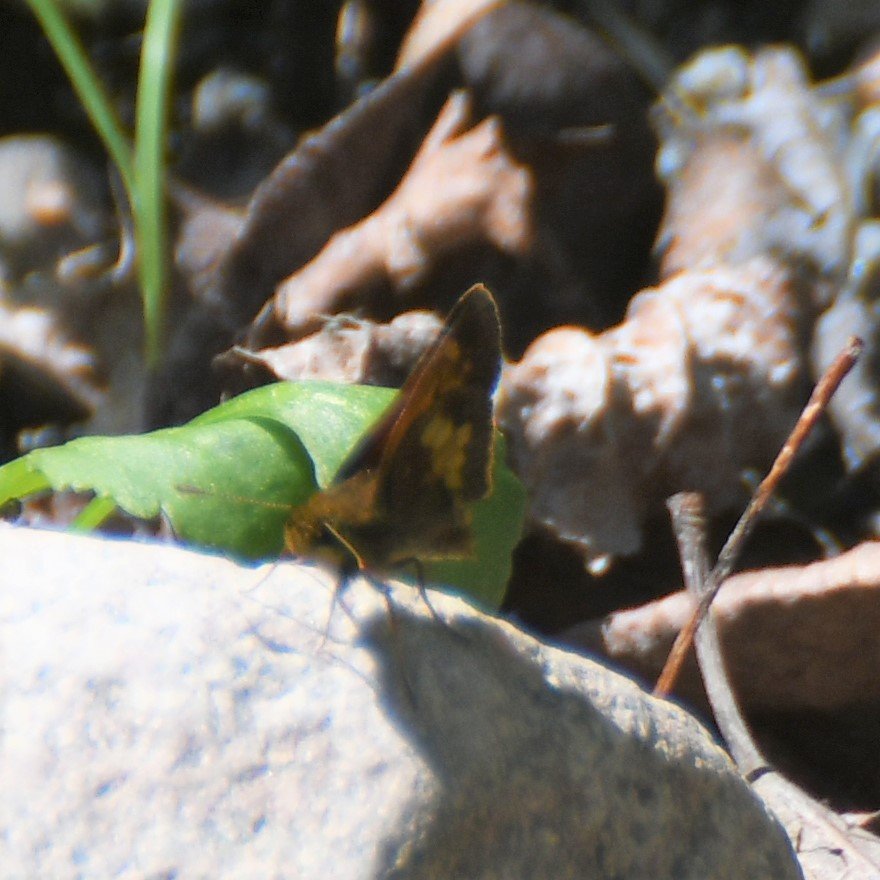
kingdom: Animalia
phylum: Arthropoda
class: Insecta
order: Lepidoptera
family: Hesperiidae
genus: Lon
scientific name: Lon hobomok
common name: Hobomok Skipper
